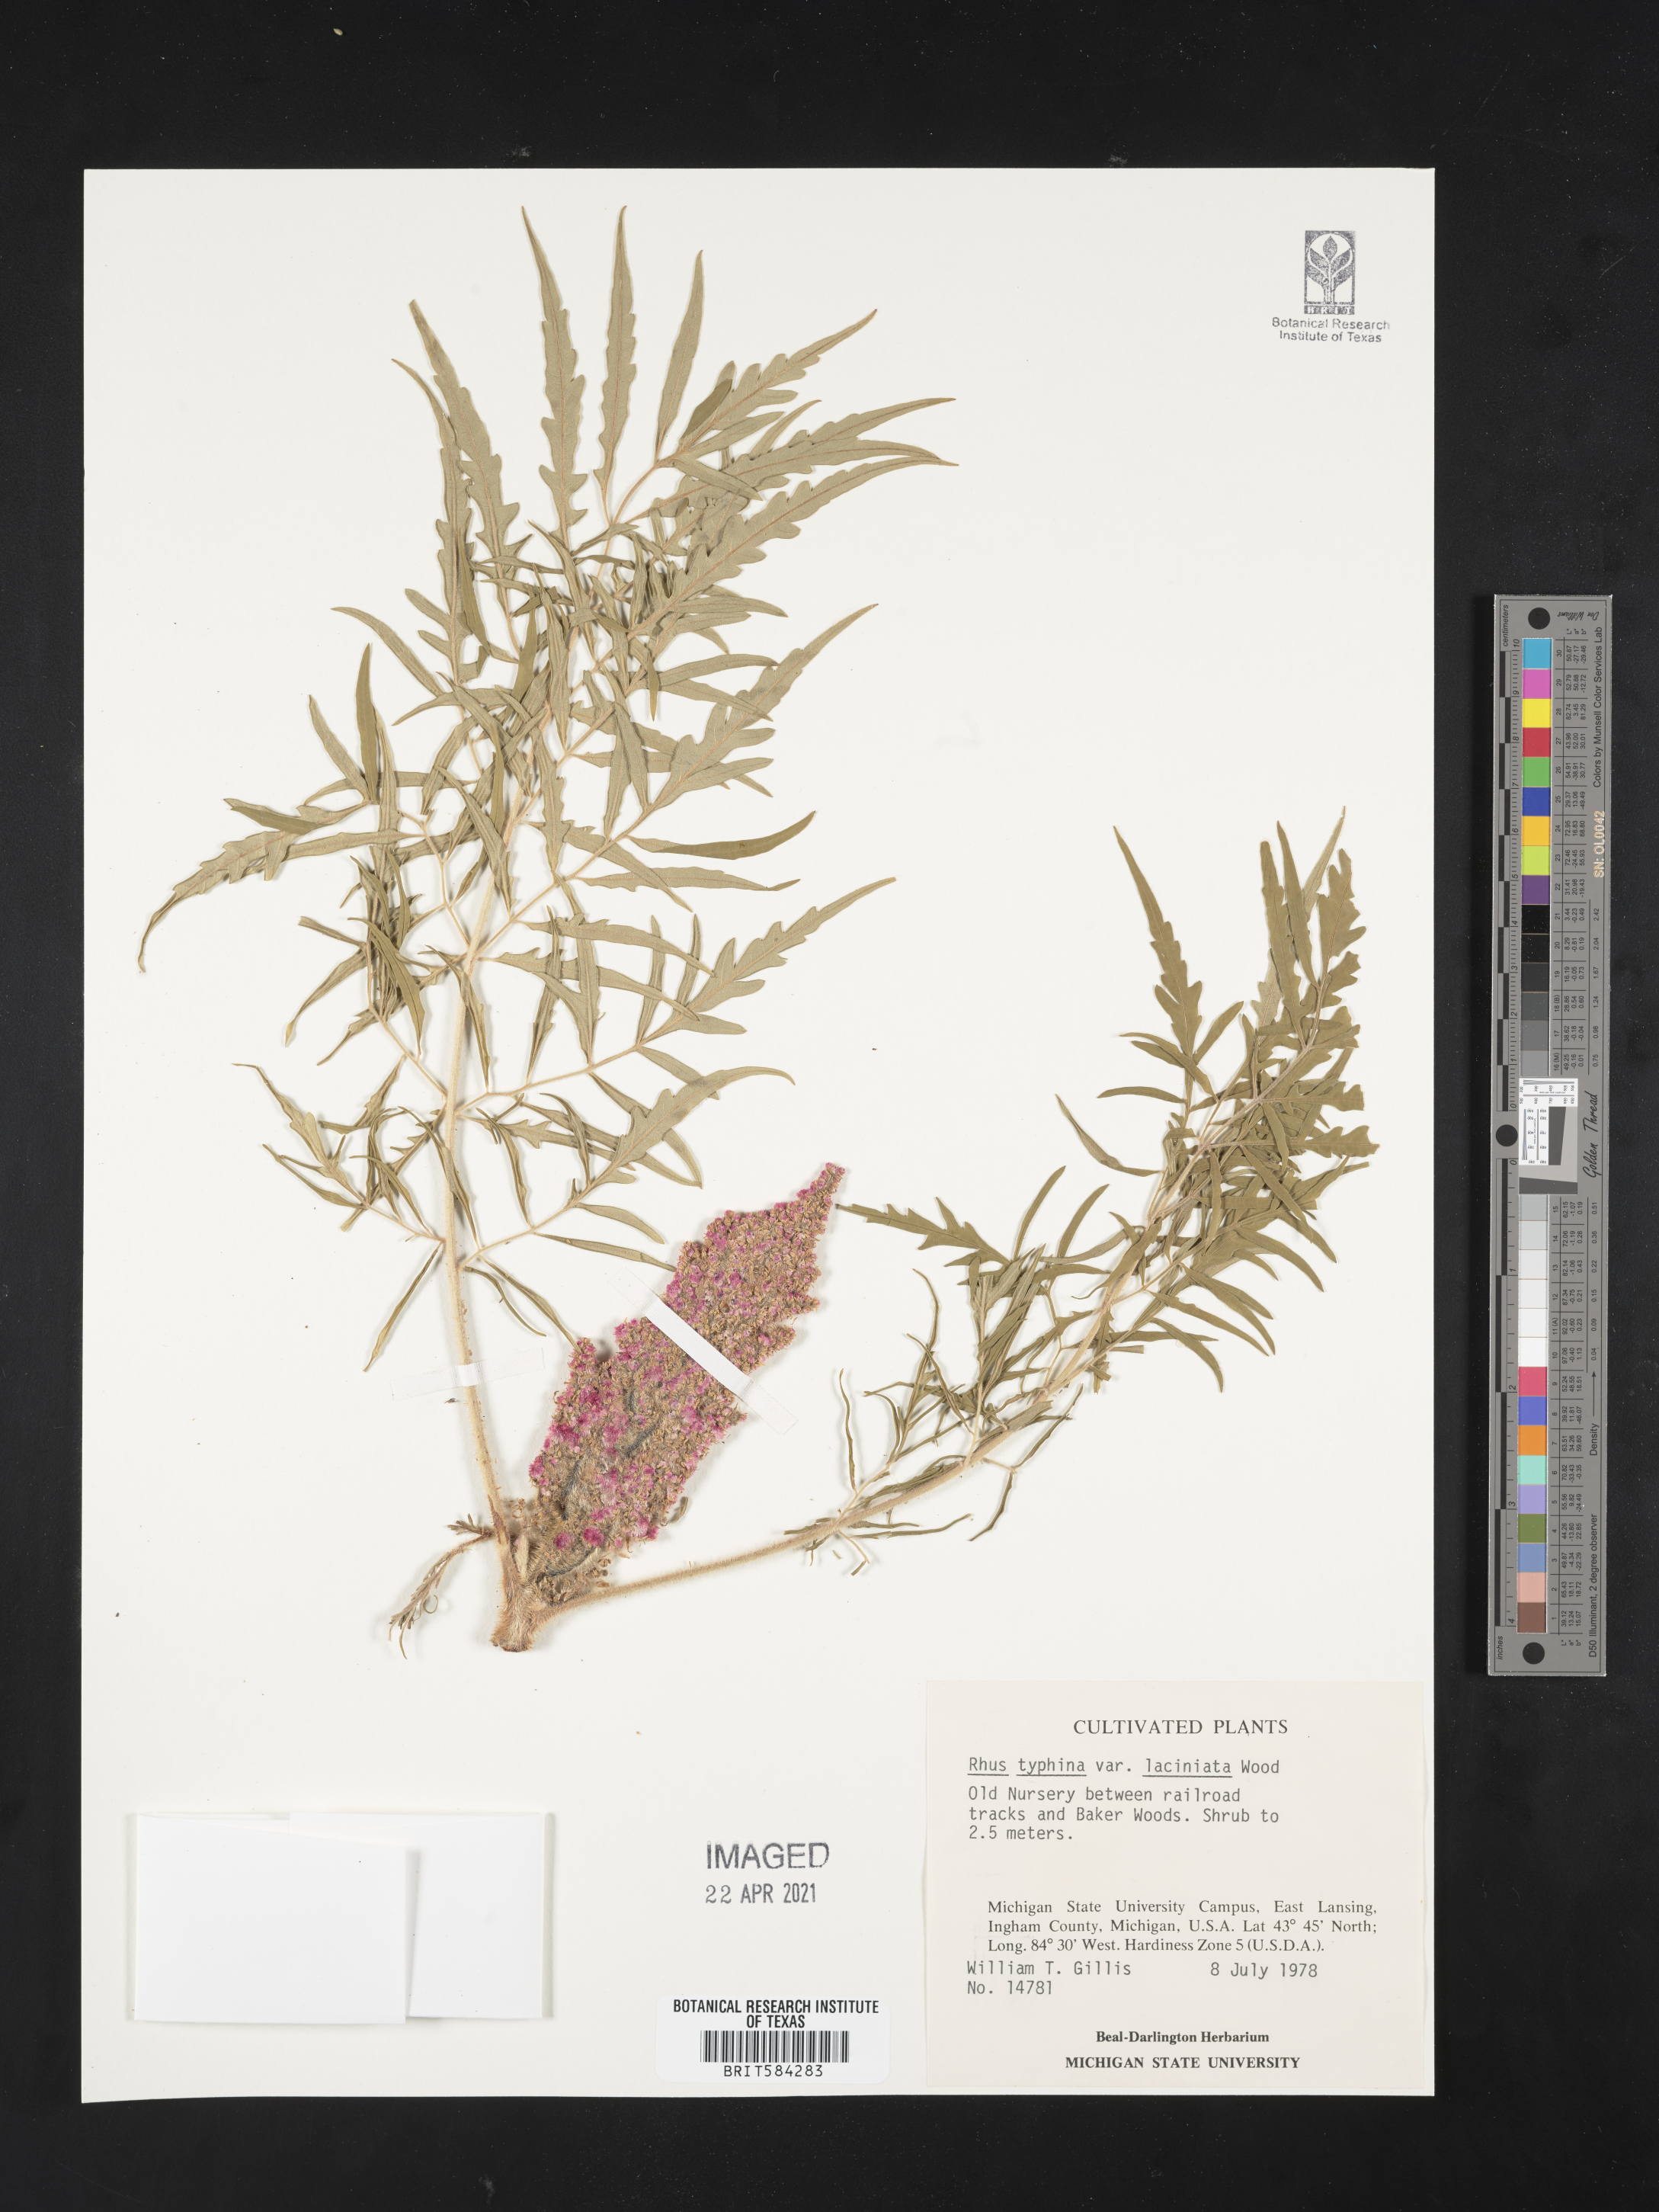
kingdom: Plantae
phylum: Tracheophyta
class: Magnoliopsida
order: Sapindales
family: Anacardiaceae
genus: Rhus
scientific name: Rhus typhina
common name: Staghorn sumac
